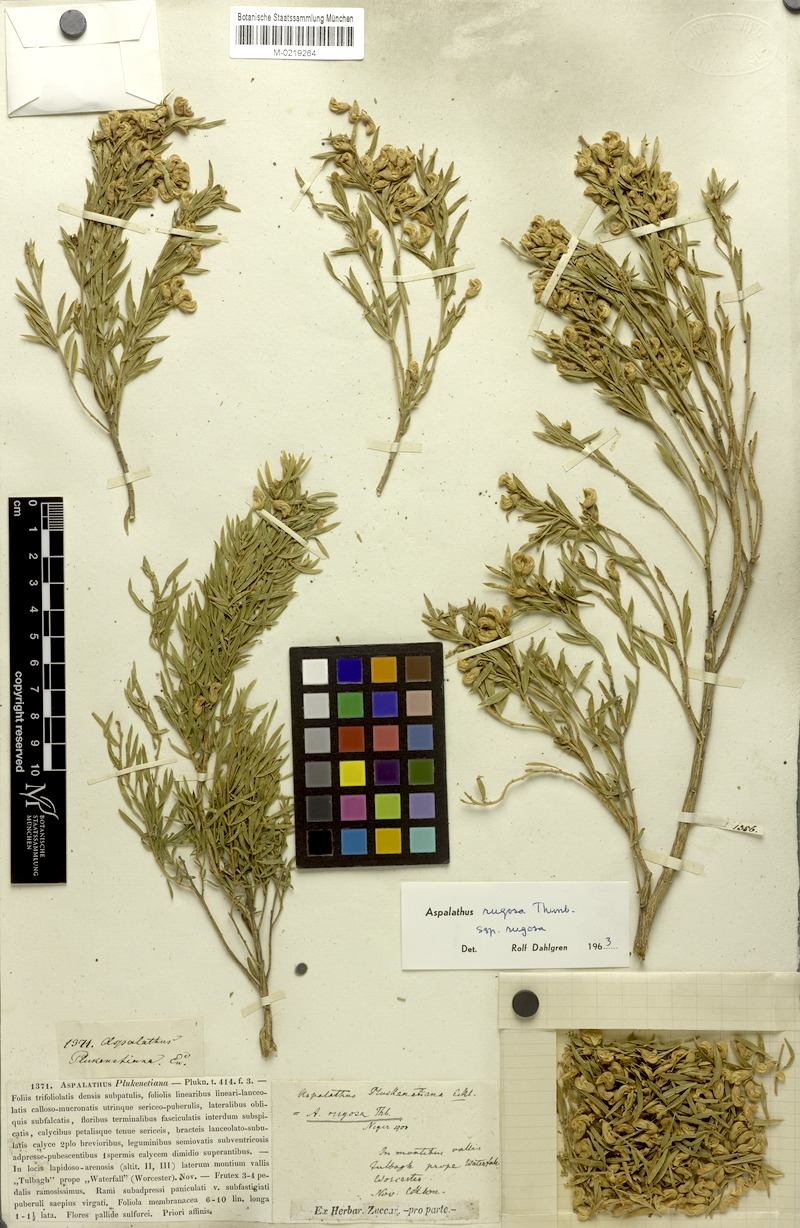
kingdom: Plantae
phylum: Tracheophyta
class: Magnoliopsida
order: Fabales
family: Fabaceae
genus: Aspalathus
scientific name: Aspalathus rugosa
